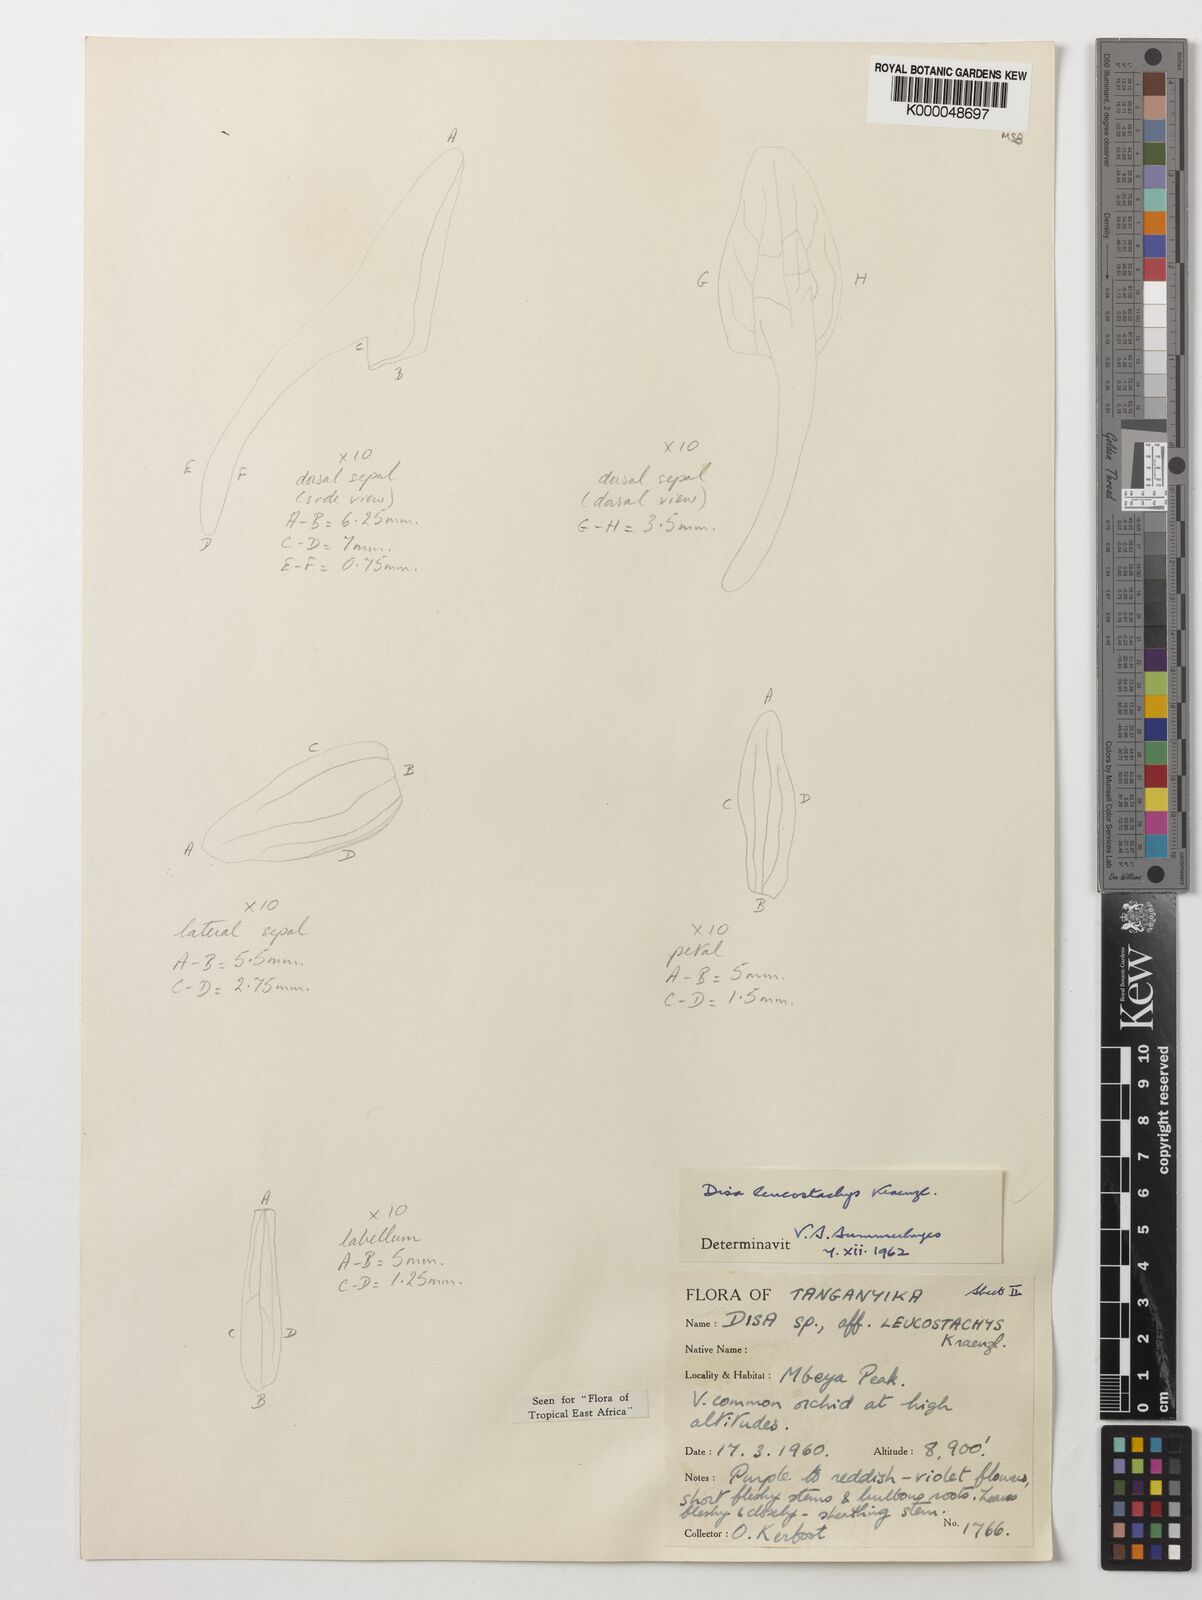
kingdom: Plantae
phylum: Tracheophyta
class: Liliopsida
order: Asparagales
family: Orchidaceae
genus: Disa
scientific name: Disa fragrans
